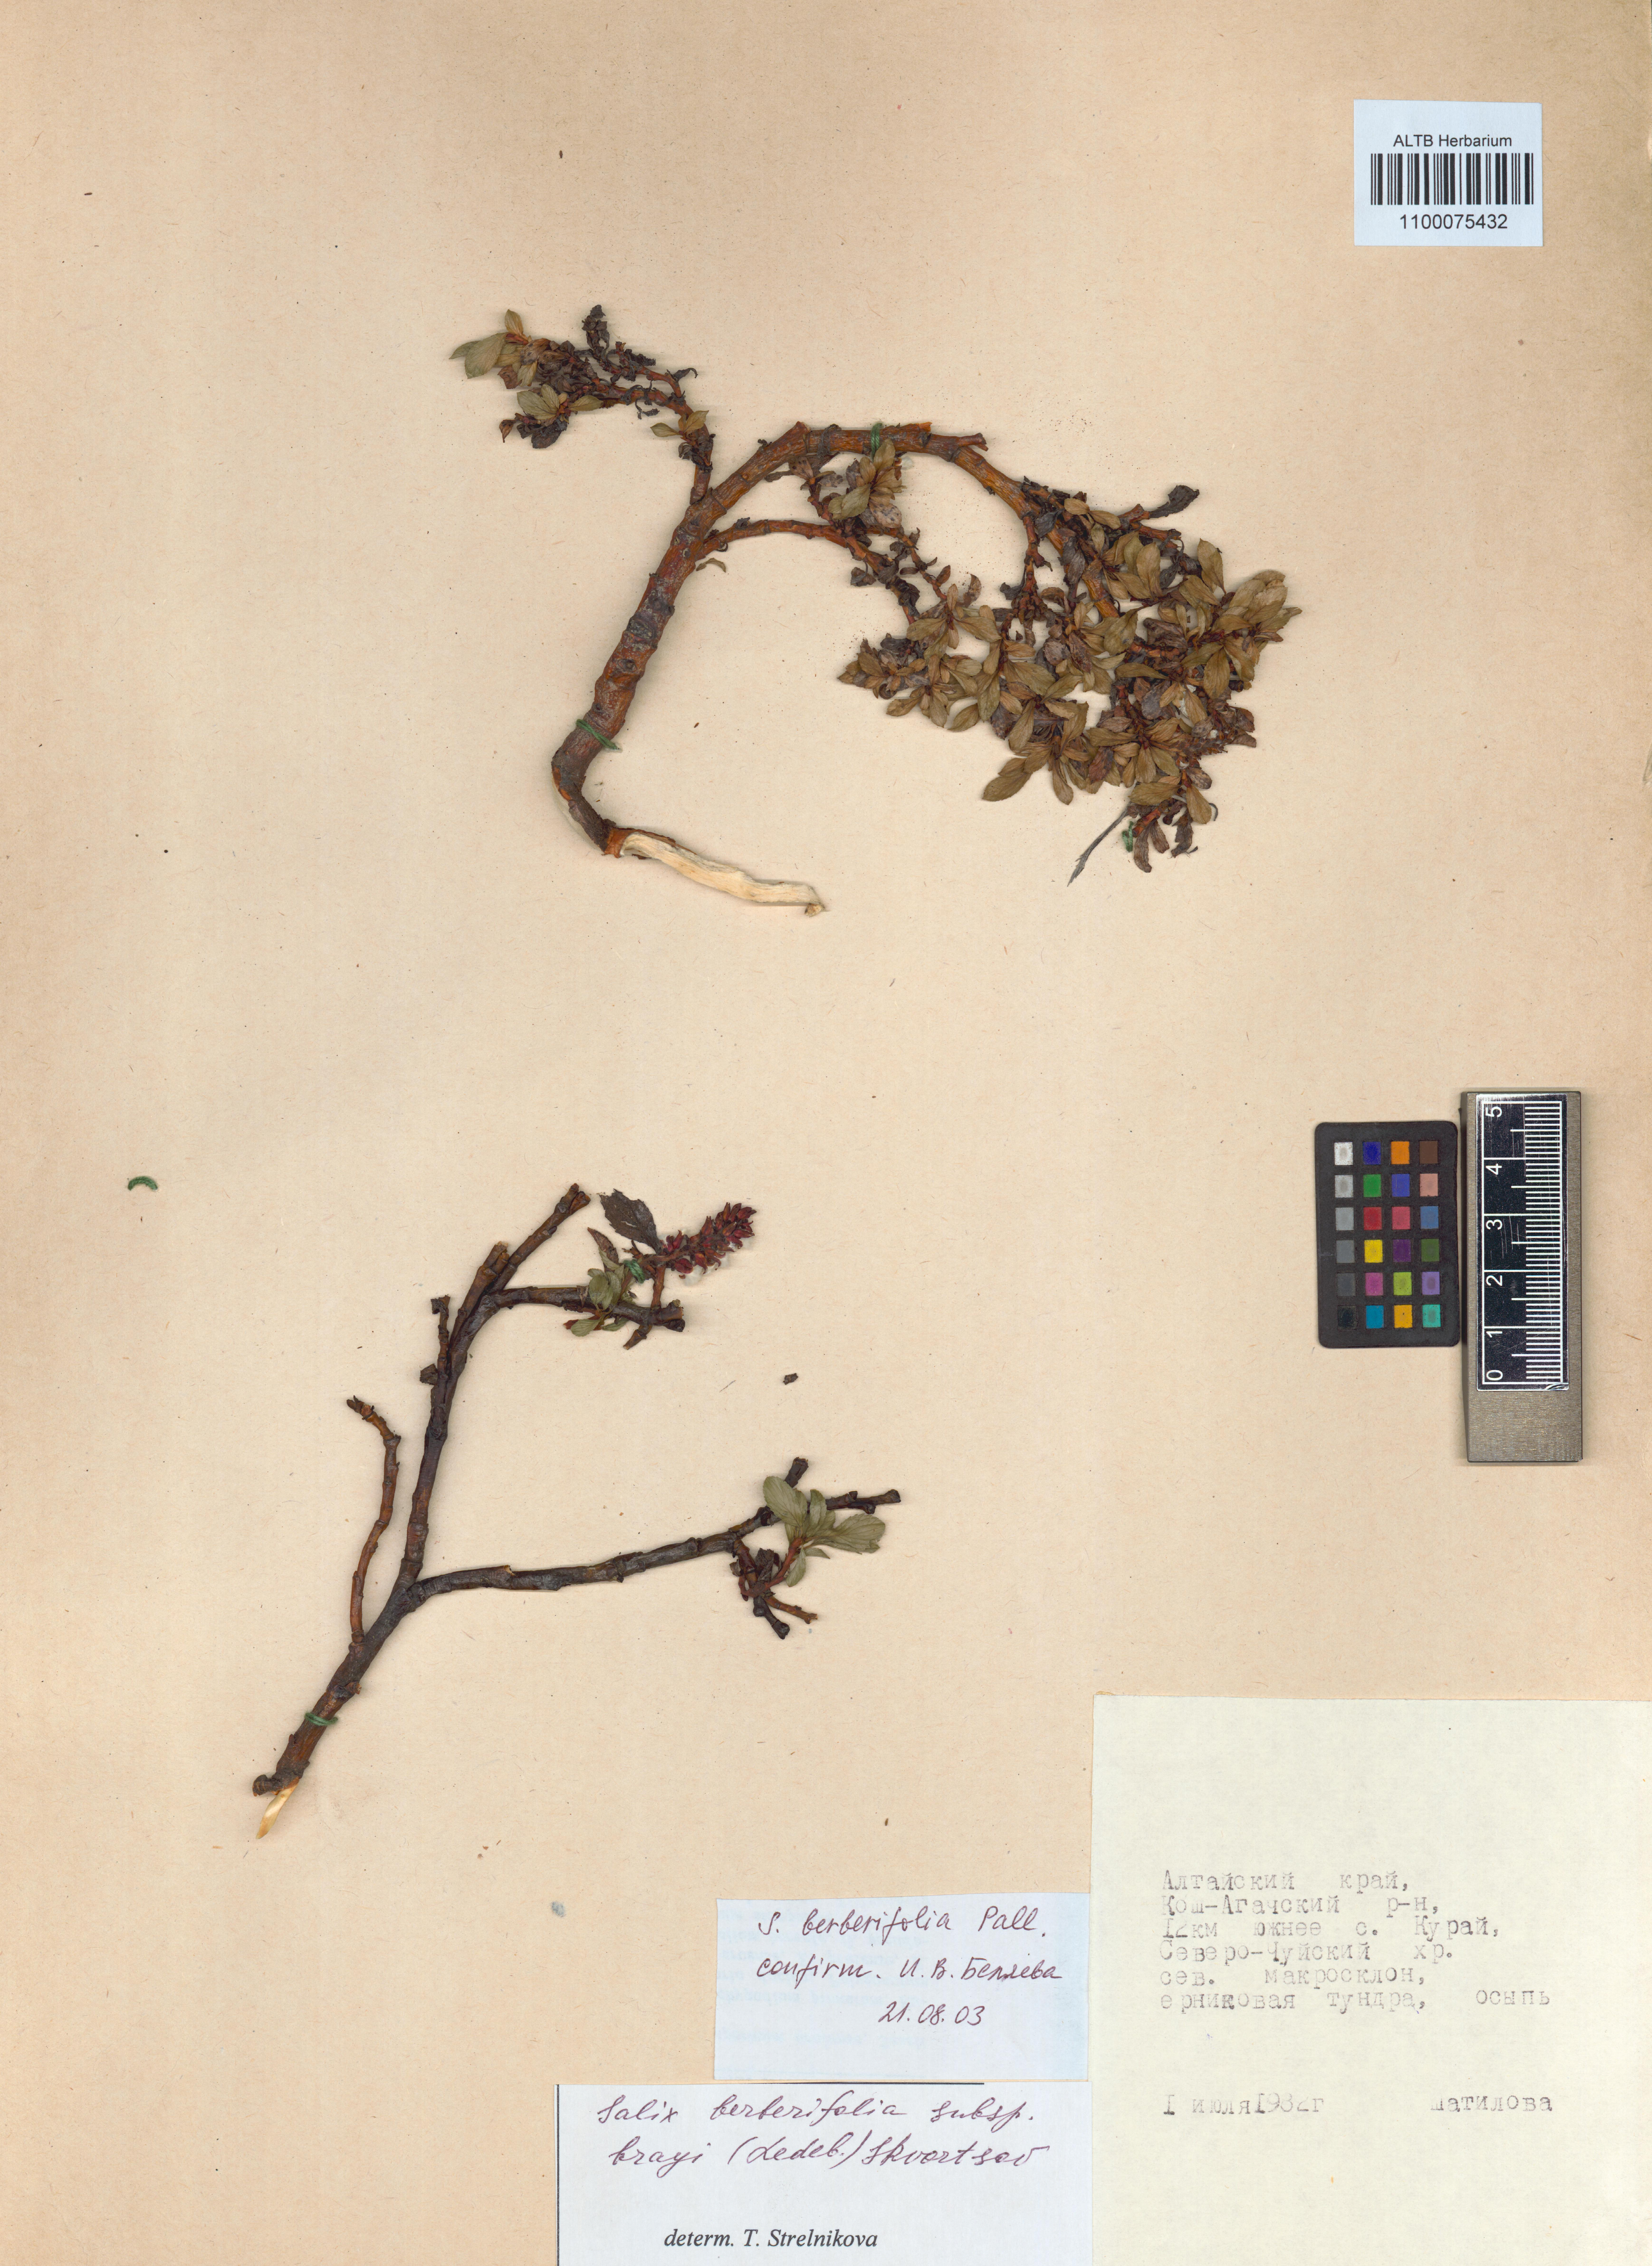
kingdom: Plantae
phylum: Tracheophyta
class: Magnoliopsida
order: Malpighiales
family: Salicaceae
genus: Salix
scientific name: Salix berberifolia
